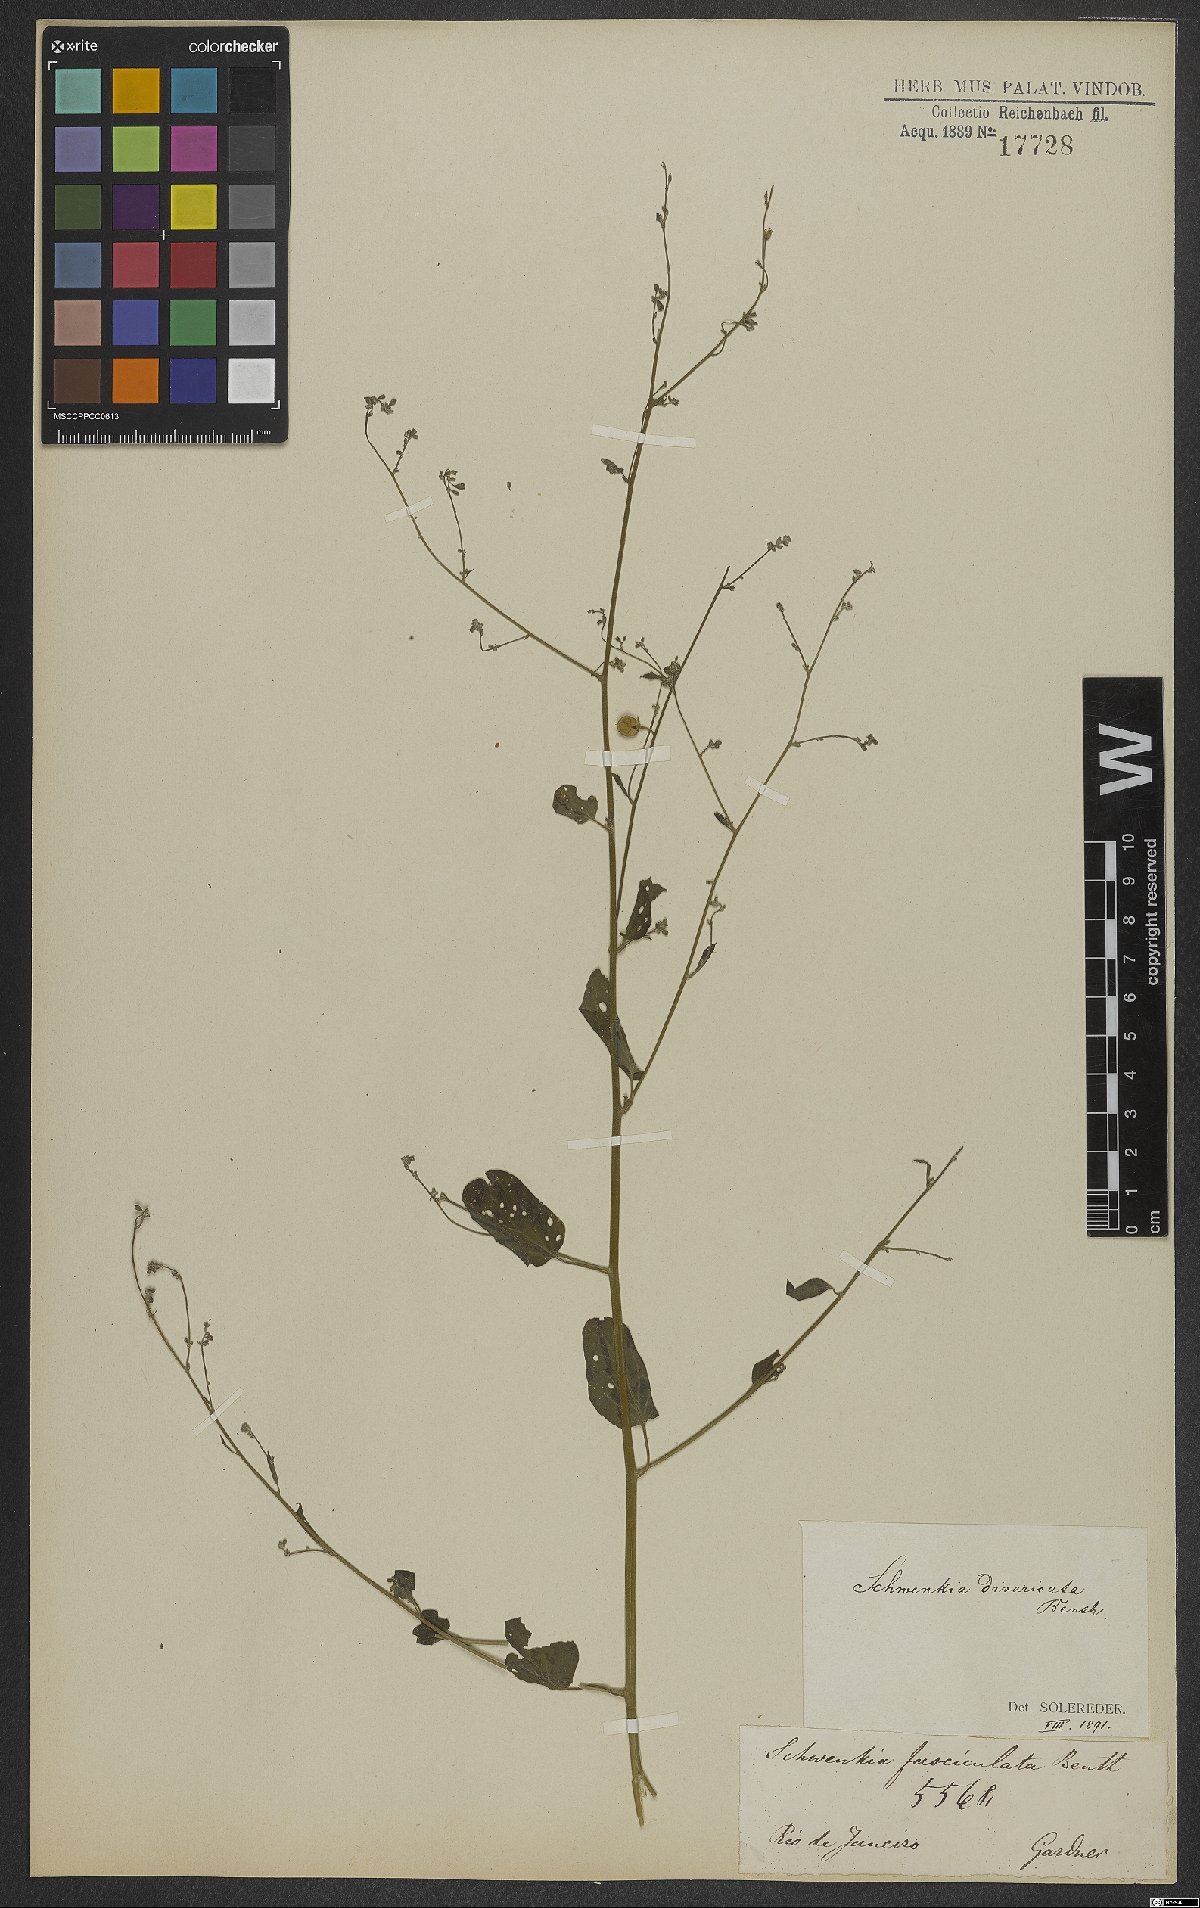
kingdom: Plantae
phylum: Tracheophyta
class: Magnoliopsida
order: Solanales
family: Solanaceae
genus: Schwenckia
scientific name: Schwenckia paniculata
